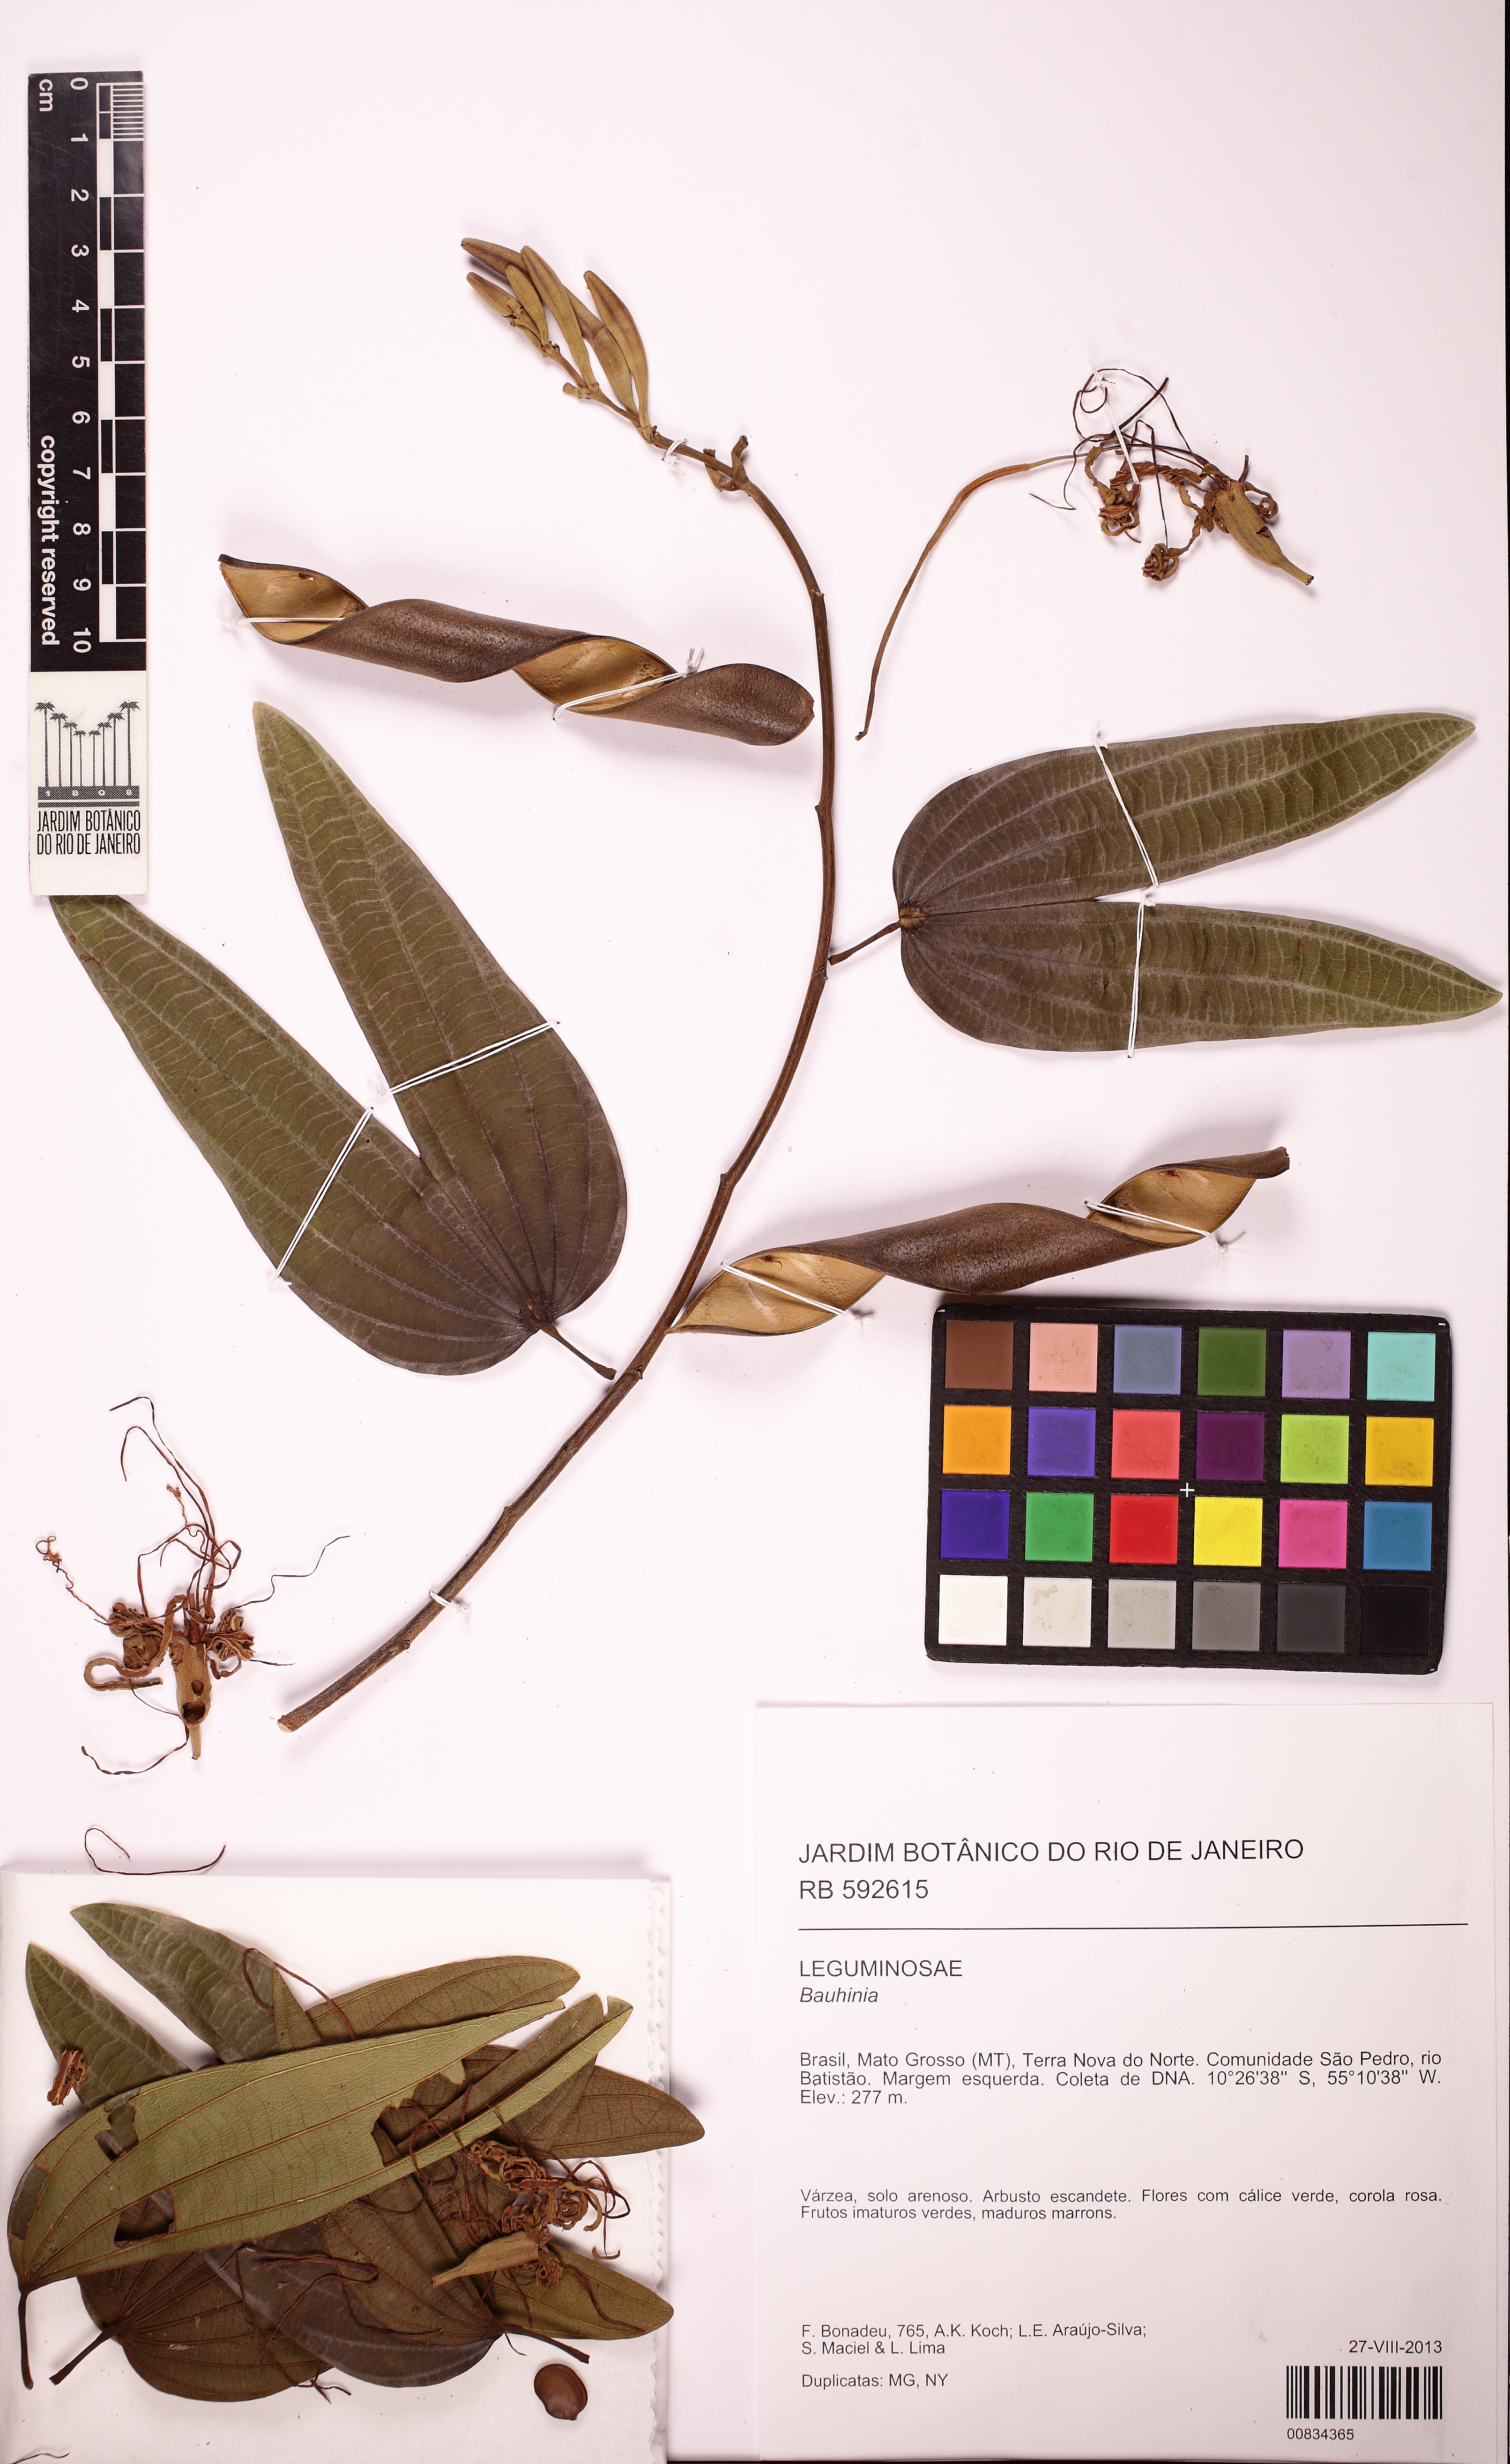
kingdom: Plantae
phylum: Tracheophyta
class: Magnoliopsida
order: Fabales
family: Fabaceae
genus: Bauhinia
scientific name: Bauhinia
